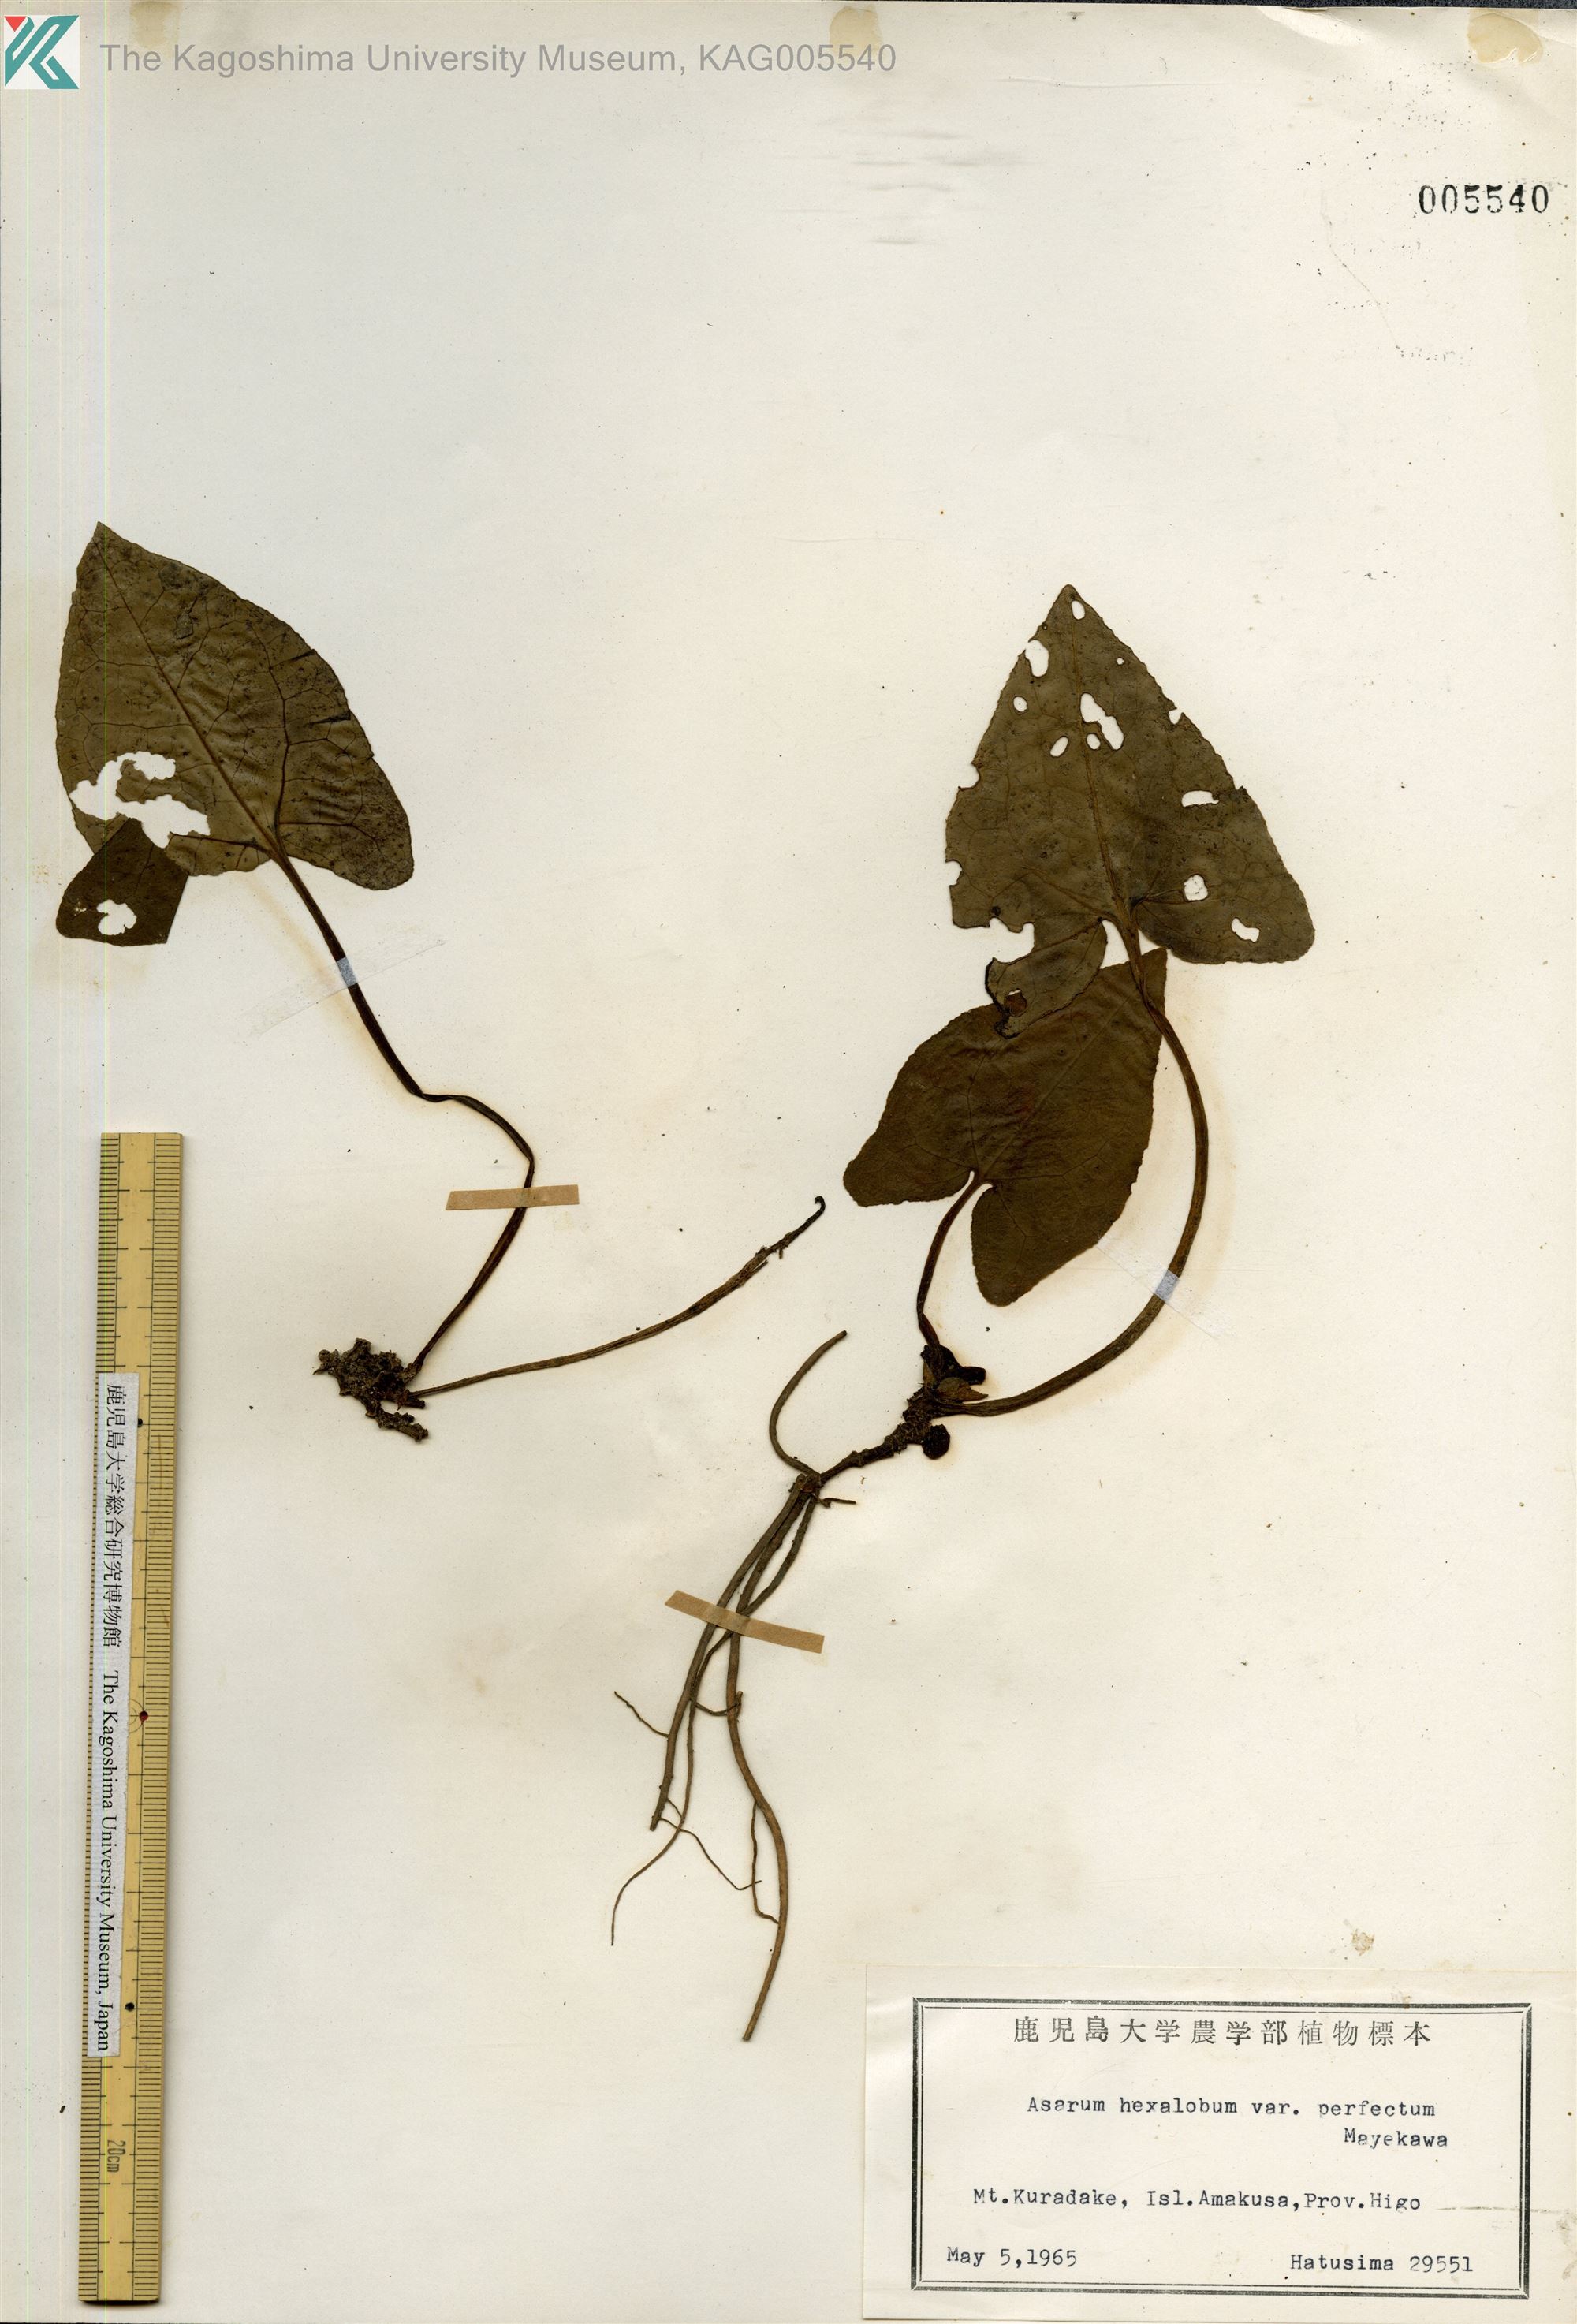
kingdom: Plantae
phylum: Tracheophyta
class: Magnoliopsida
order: Piperales
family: Aristolochiaceae
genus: Asarum
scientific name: Asarum hexalobum
